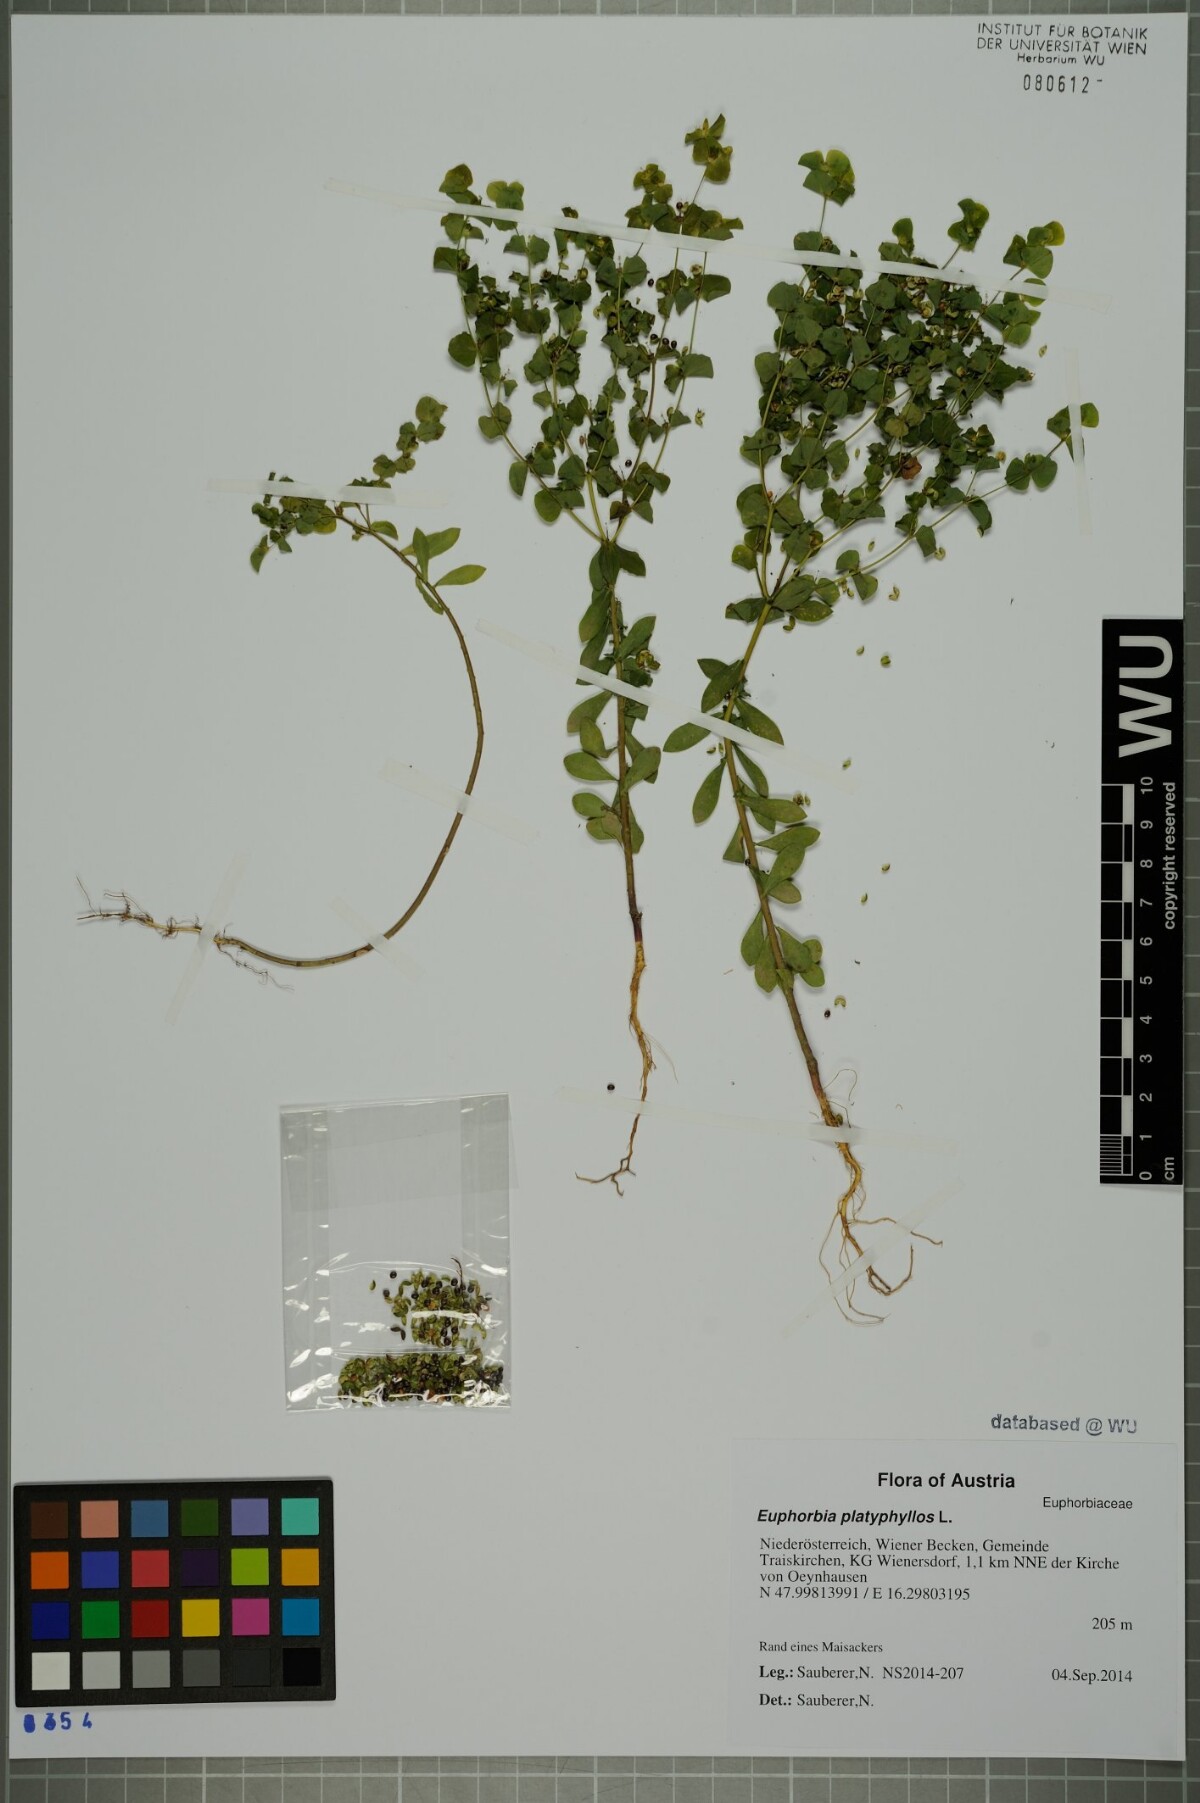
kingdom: Plantae
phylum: Tracheophyta
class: Magnoliopsida
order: Malpighiales
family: Euphorbiaceae
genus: Euphorbia
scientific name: Euphorbia platyphyllos
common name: Broad-leaved spurge
